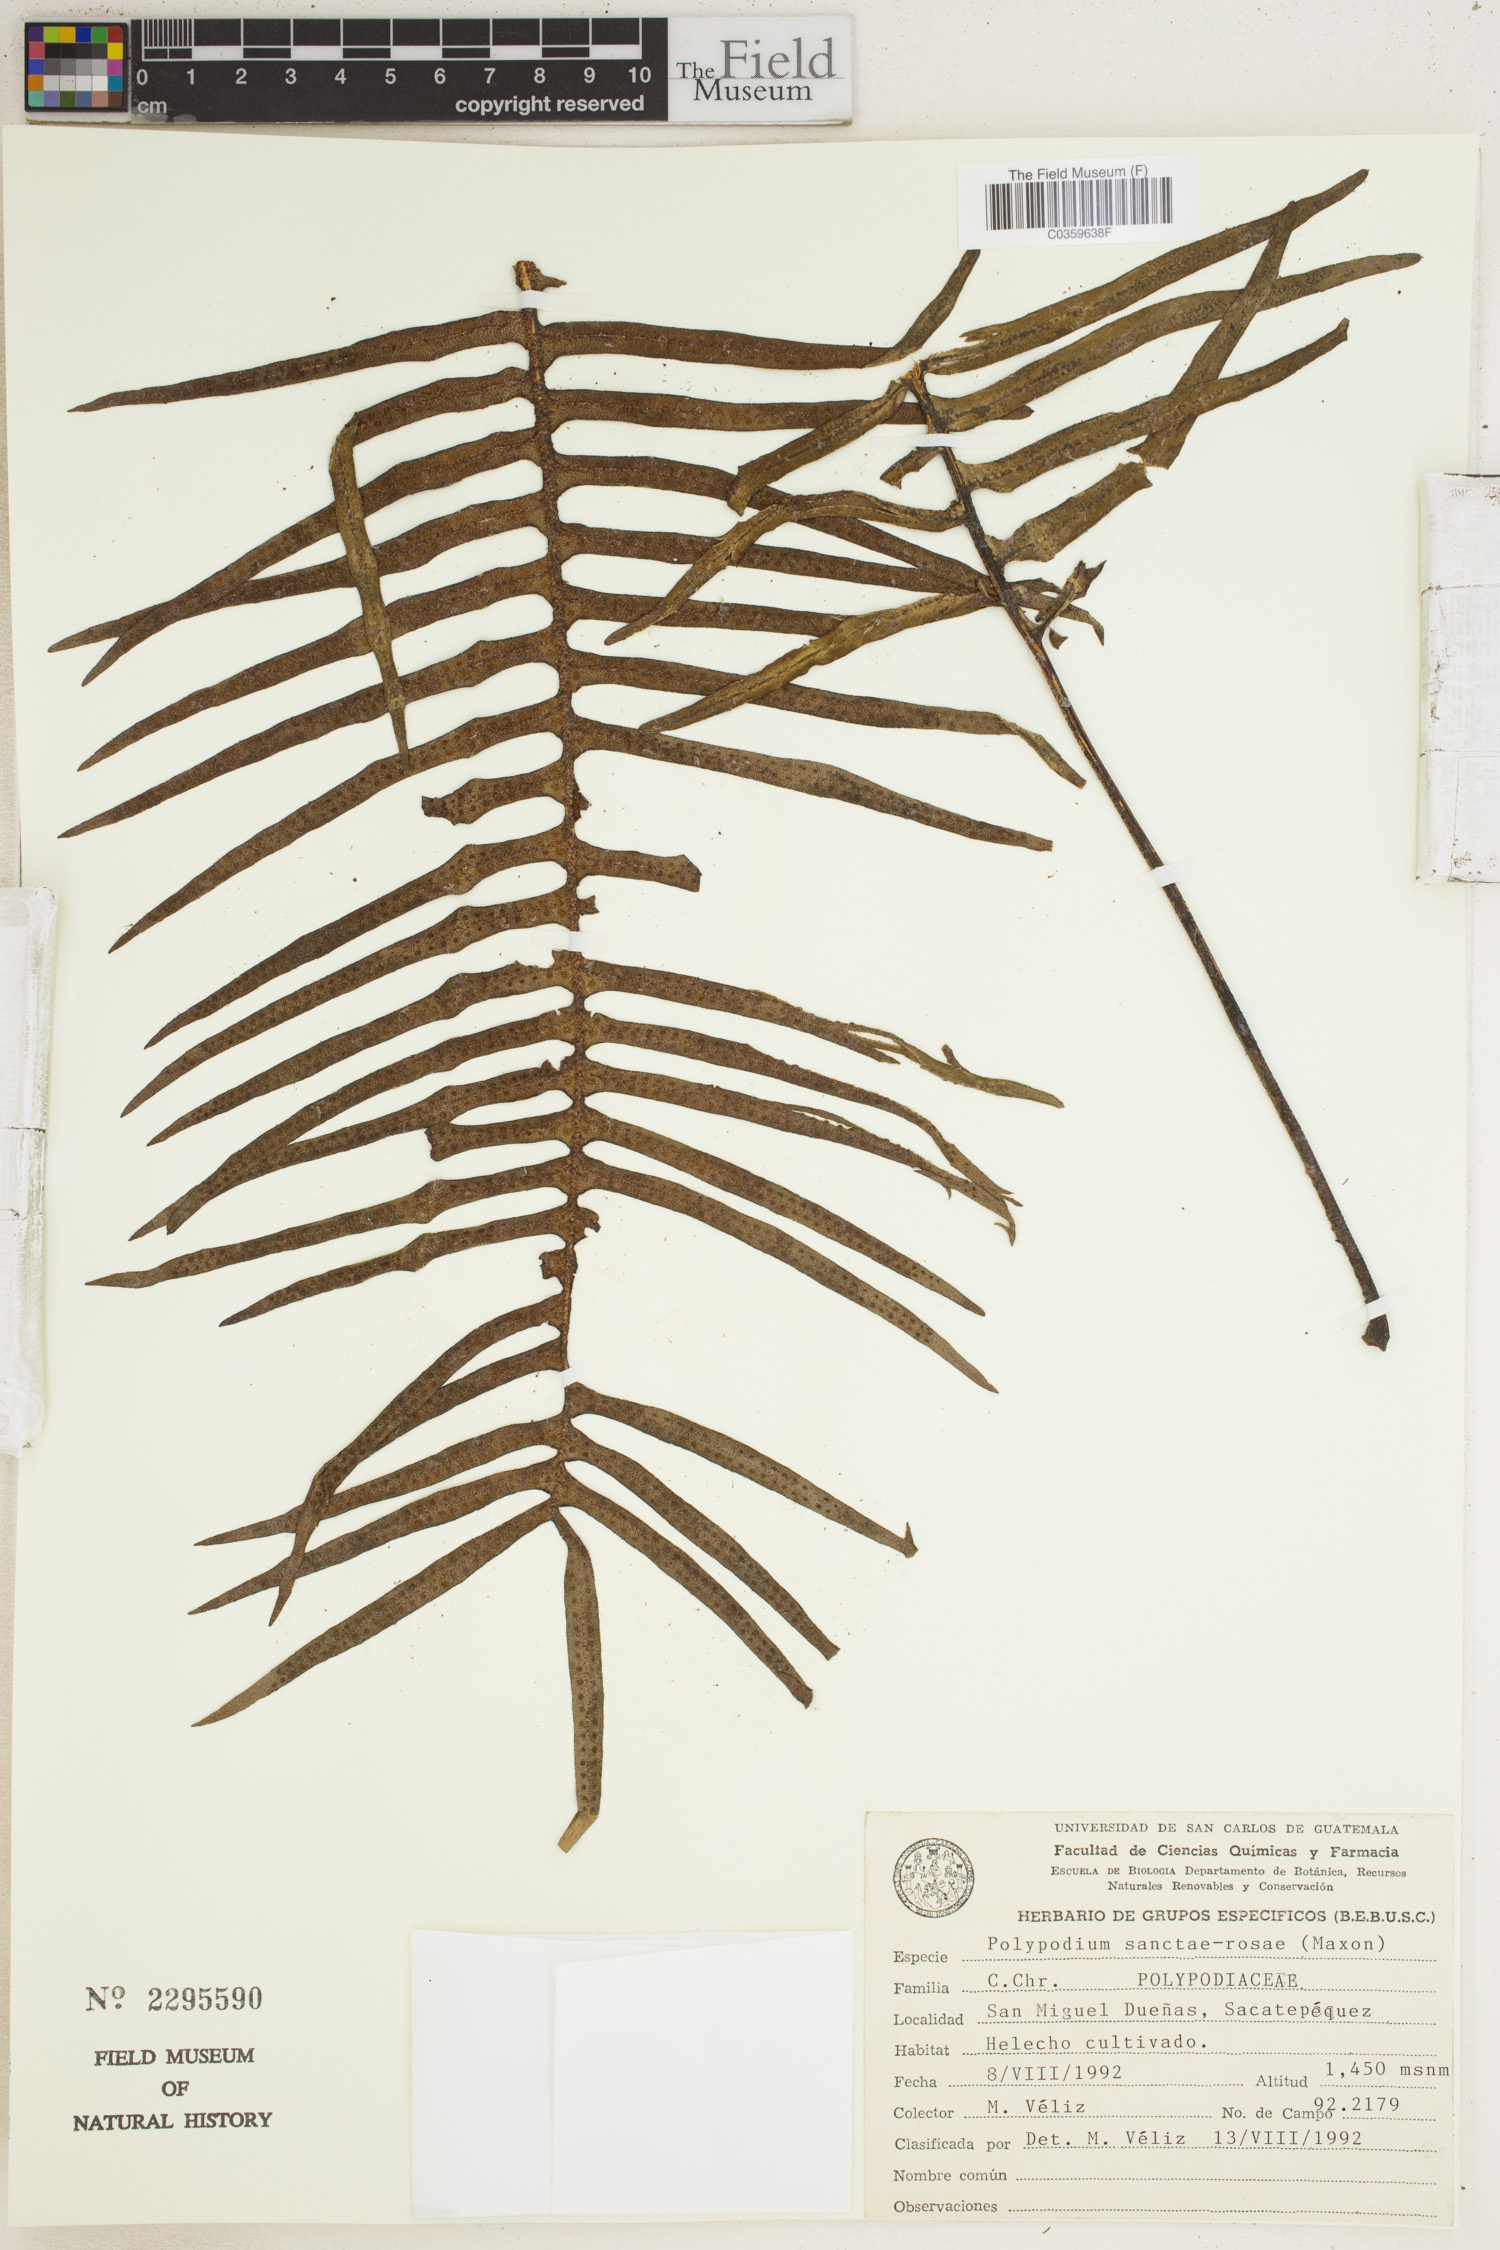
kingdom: Plantae
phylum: Tracheophyta
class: Polypodiopsida
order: Polypodiales
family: Polypodiaceae
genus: Pleopeltis
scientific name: Pleopeltis sanctae-rosae
